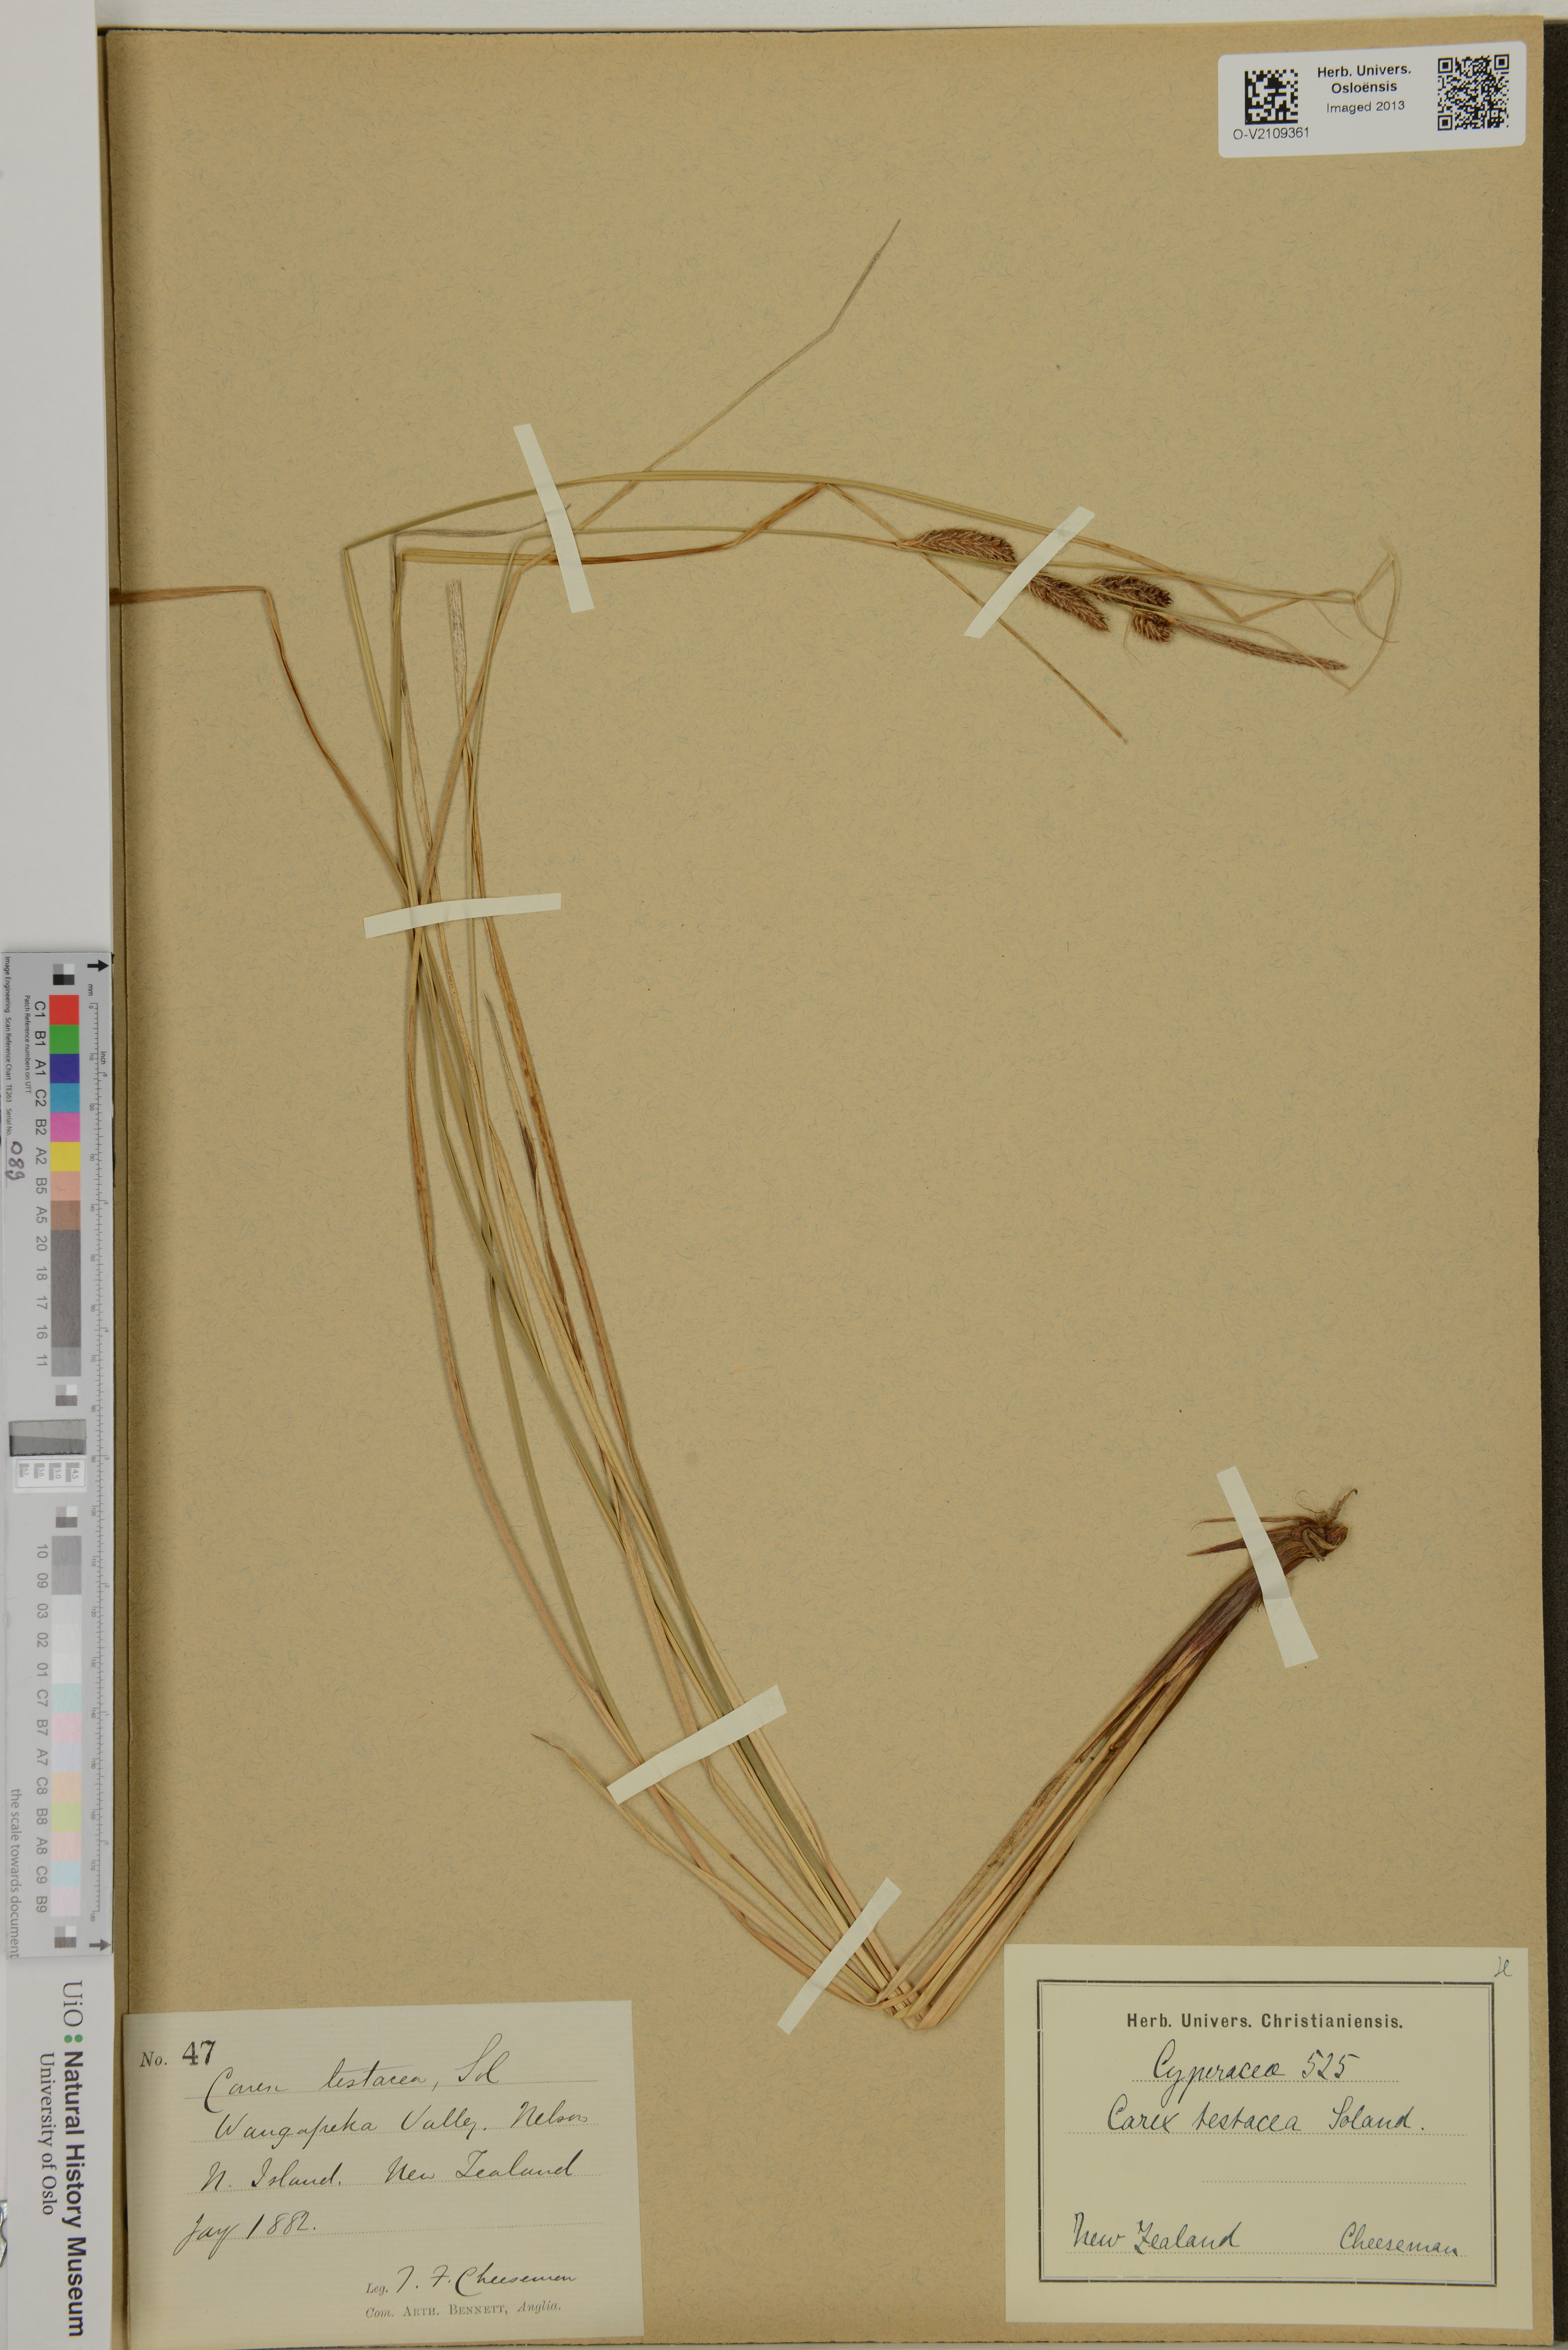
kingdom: Plantae
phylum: Tracheophyta
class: Liliopsida
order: Poales
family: Cyperaceae
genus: Carex
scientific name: Carex testacea
